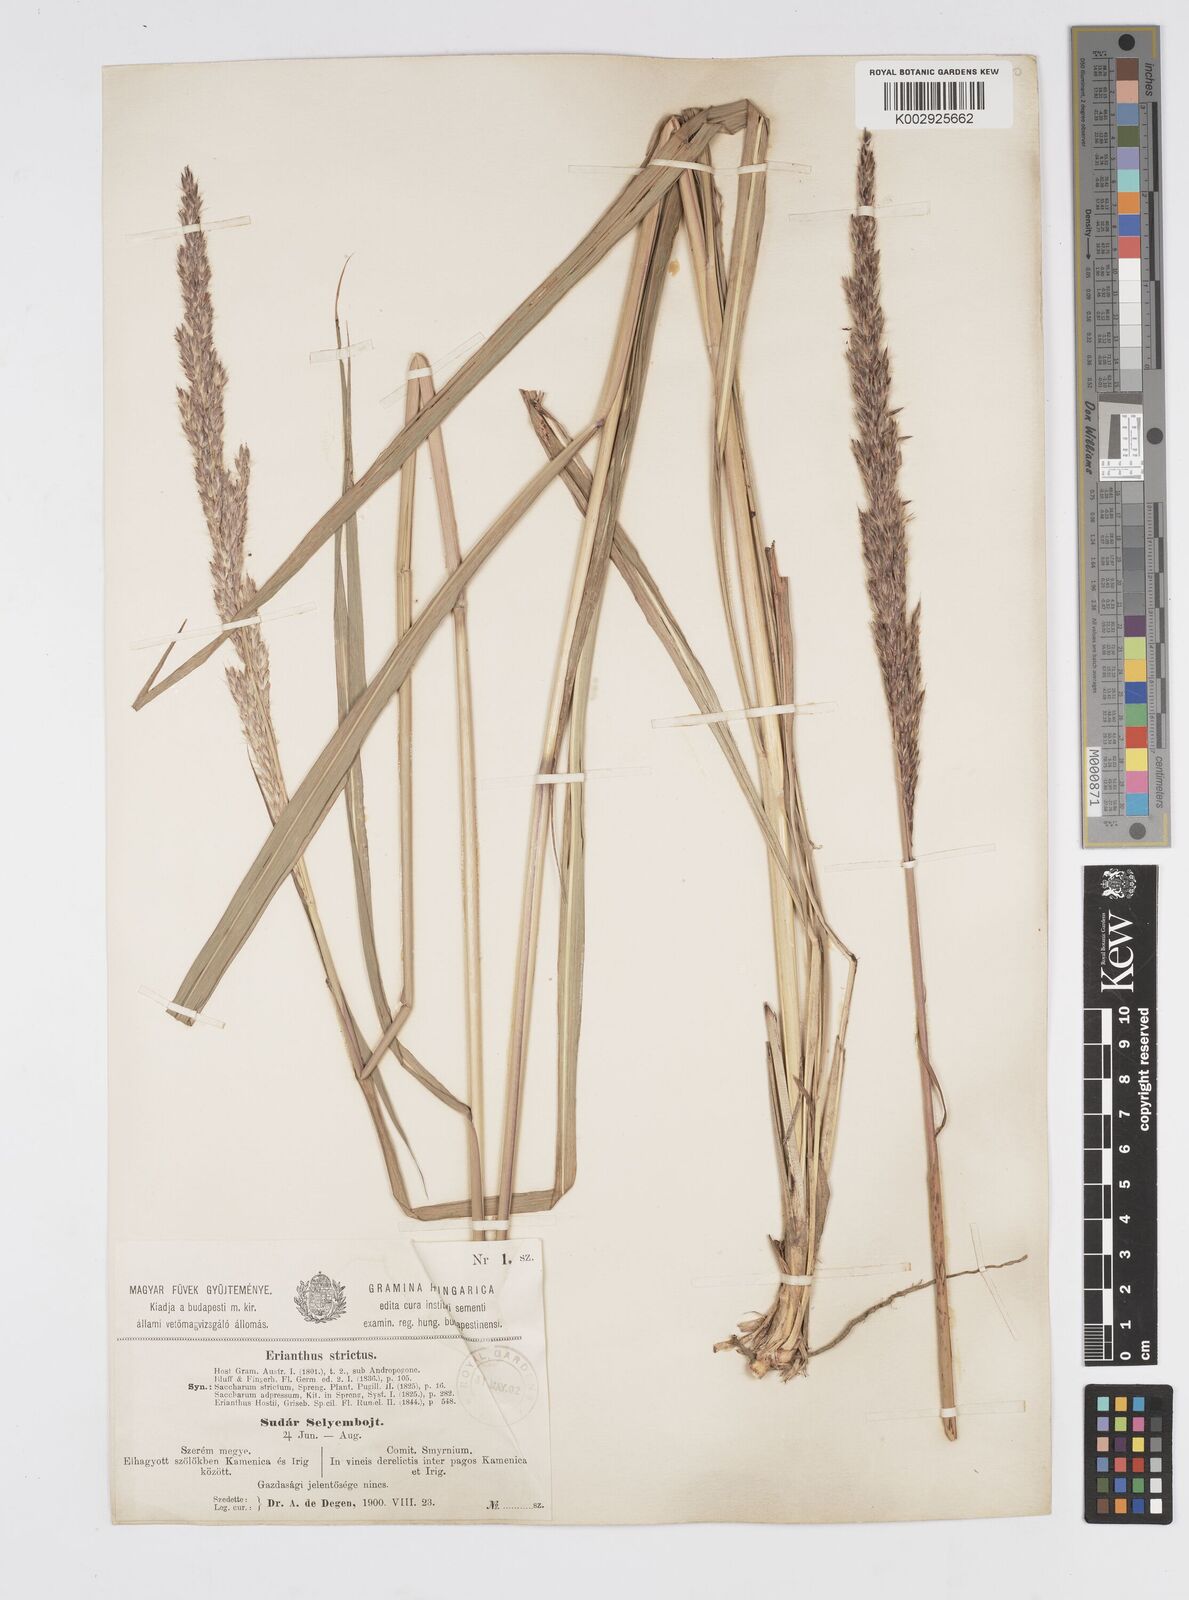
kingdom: Plantae
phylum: Tracheophyta
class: Liliopsida
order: Poales
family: Poaceae
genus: Tripidium
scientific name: Tripidium strictum
